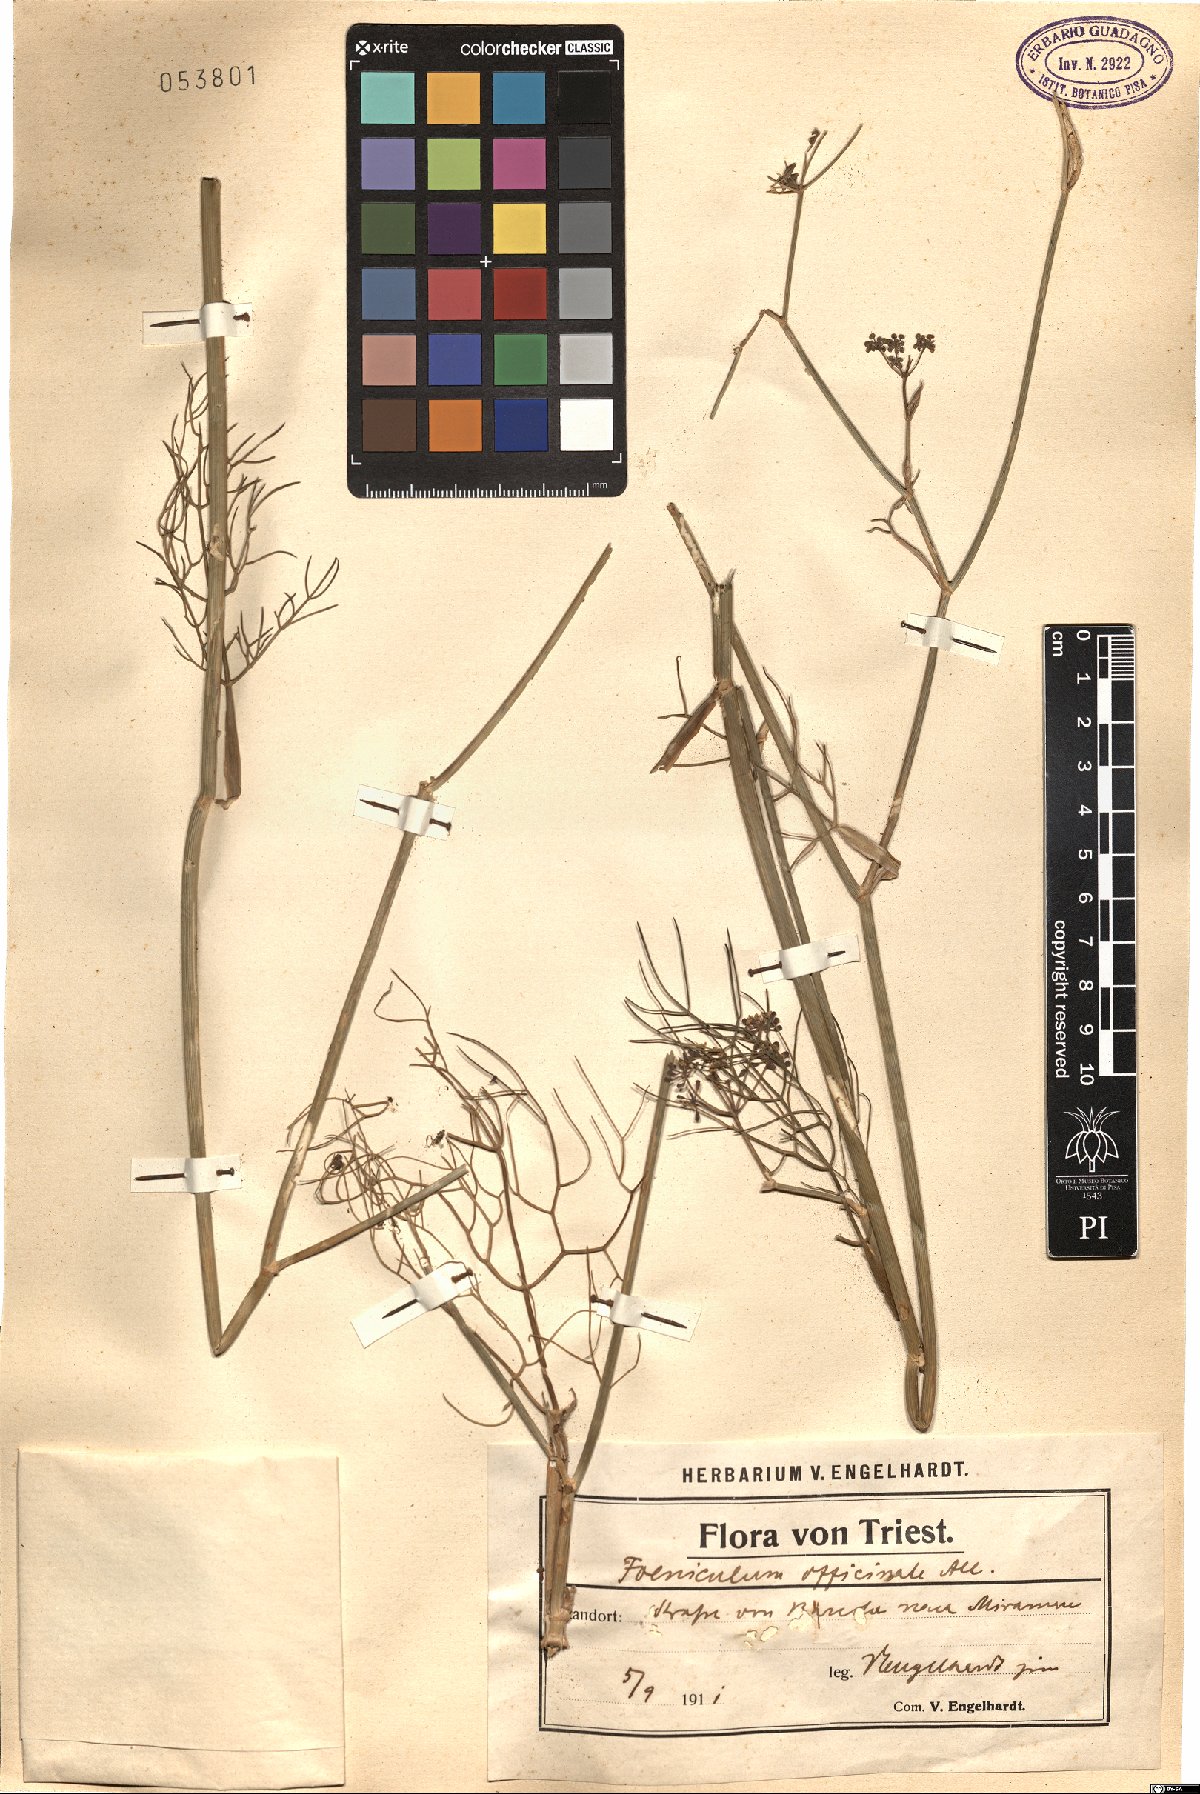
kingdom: Plantae
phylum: Tracheophyta
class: Magnoliopsida
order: Apiales
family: Apiaceae
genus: Foeniculum
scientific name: Foeniculum vulgare
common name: Fennel
